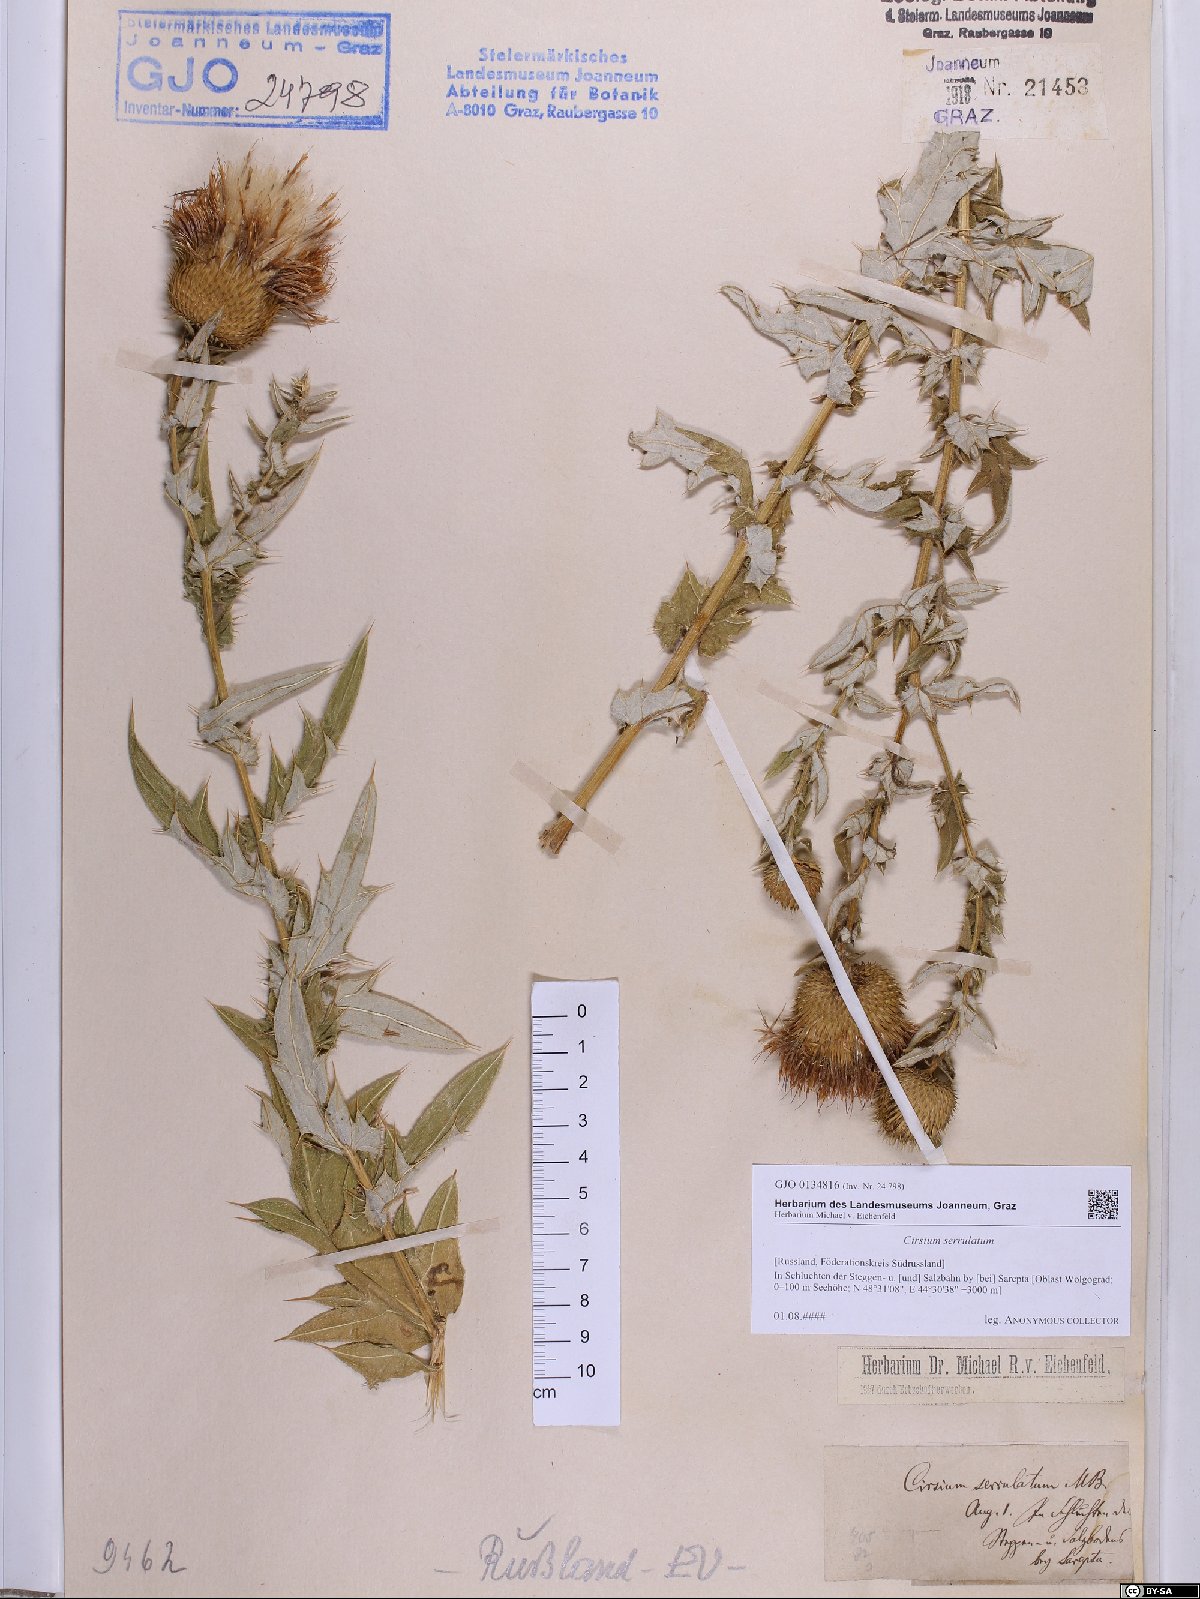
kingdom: Plantae
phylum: Tracheophyta
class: Magnoliopsida
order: Asterales
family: Asteraceae
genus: Lophiolepis
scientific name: Lophiolepis serrulata
